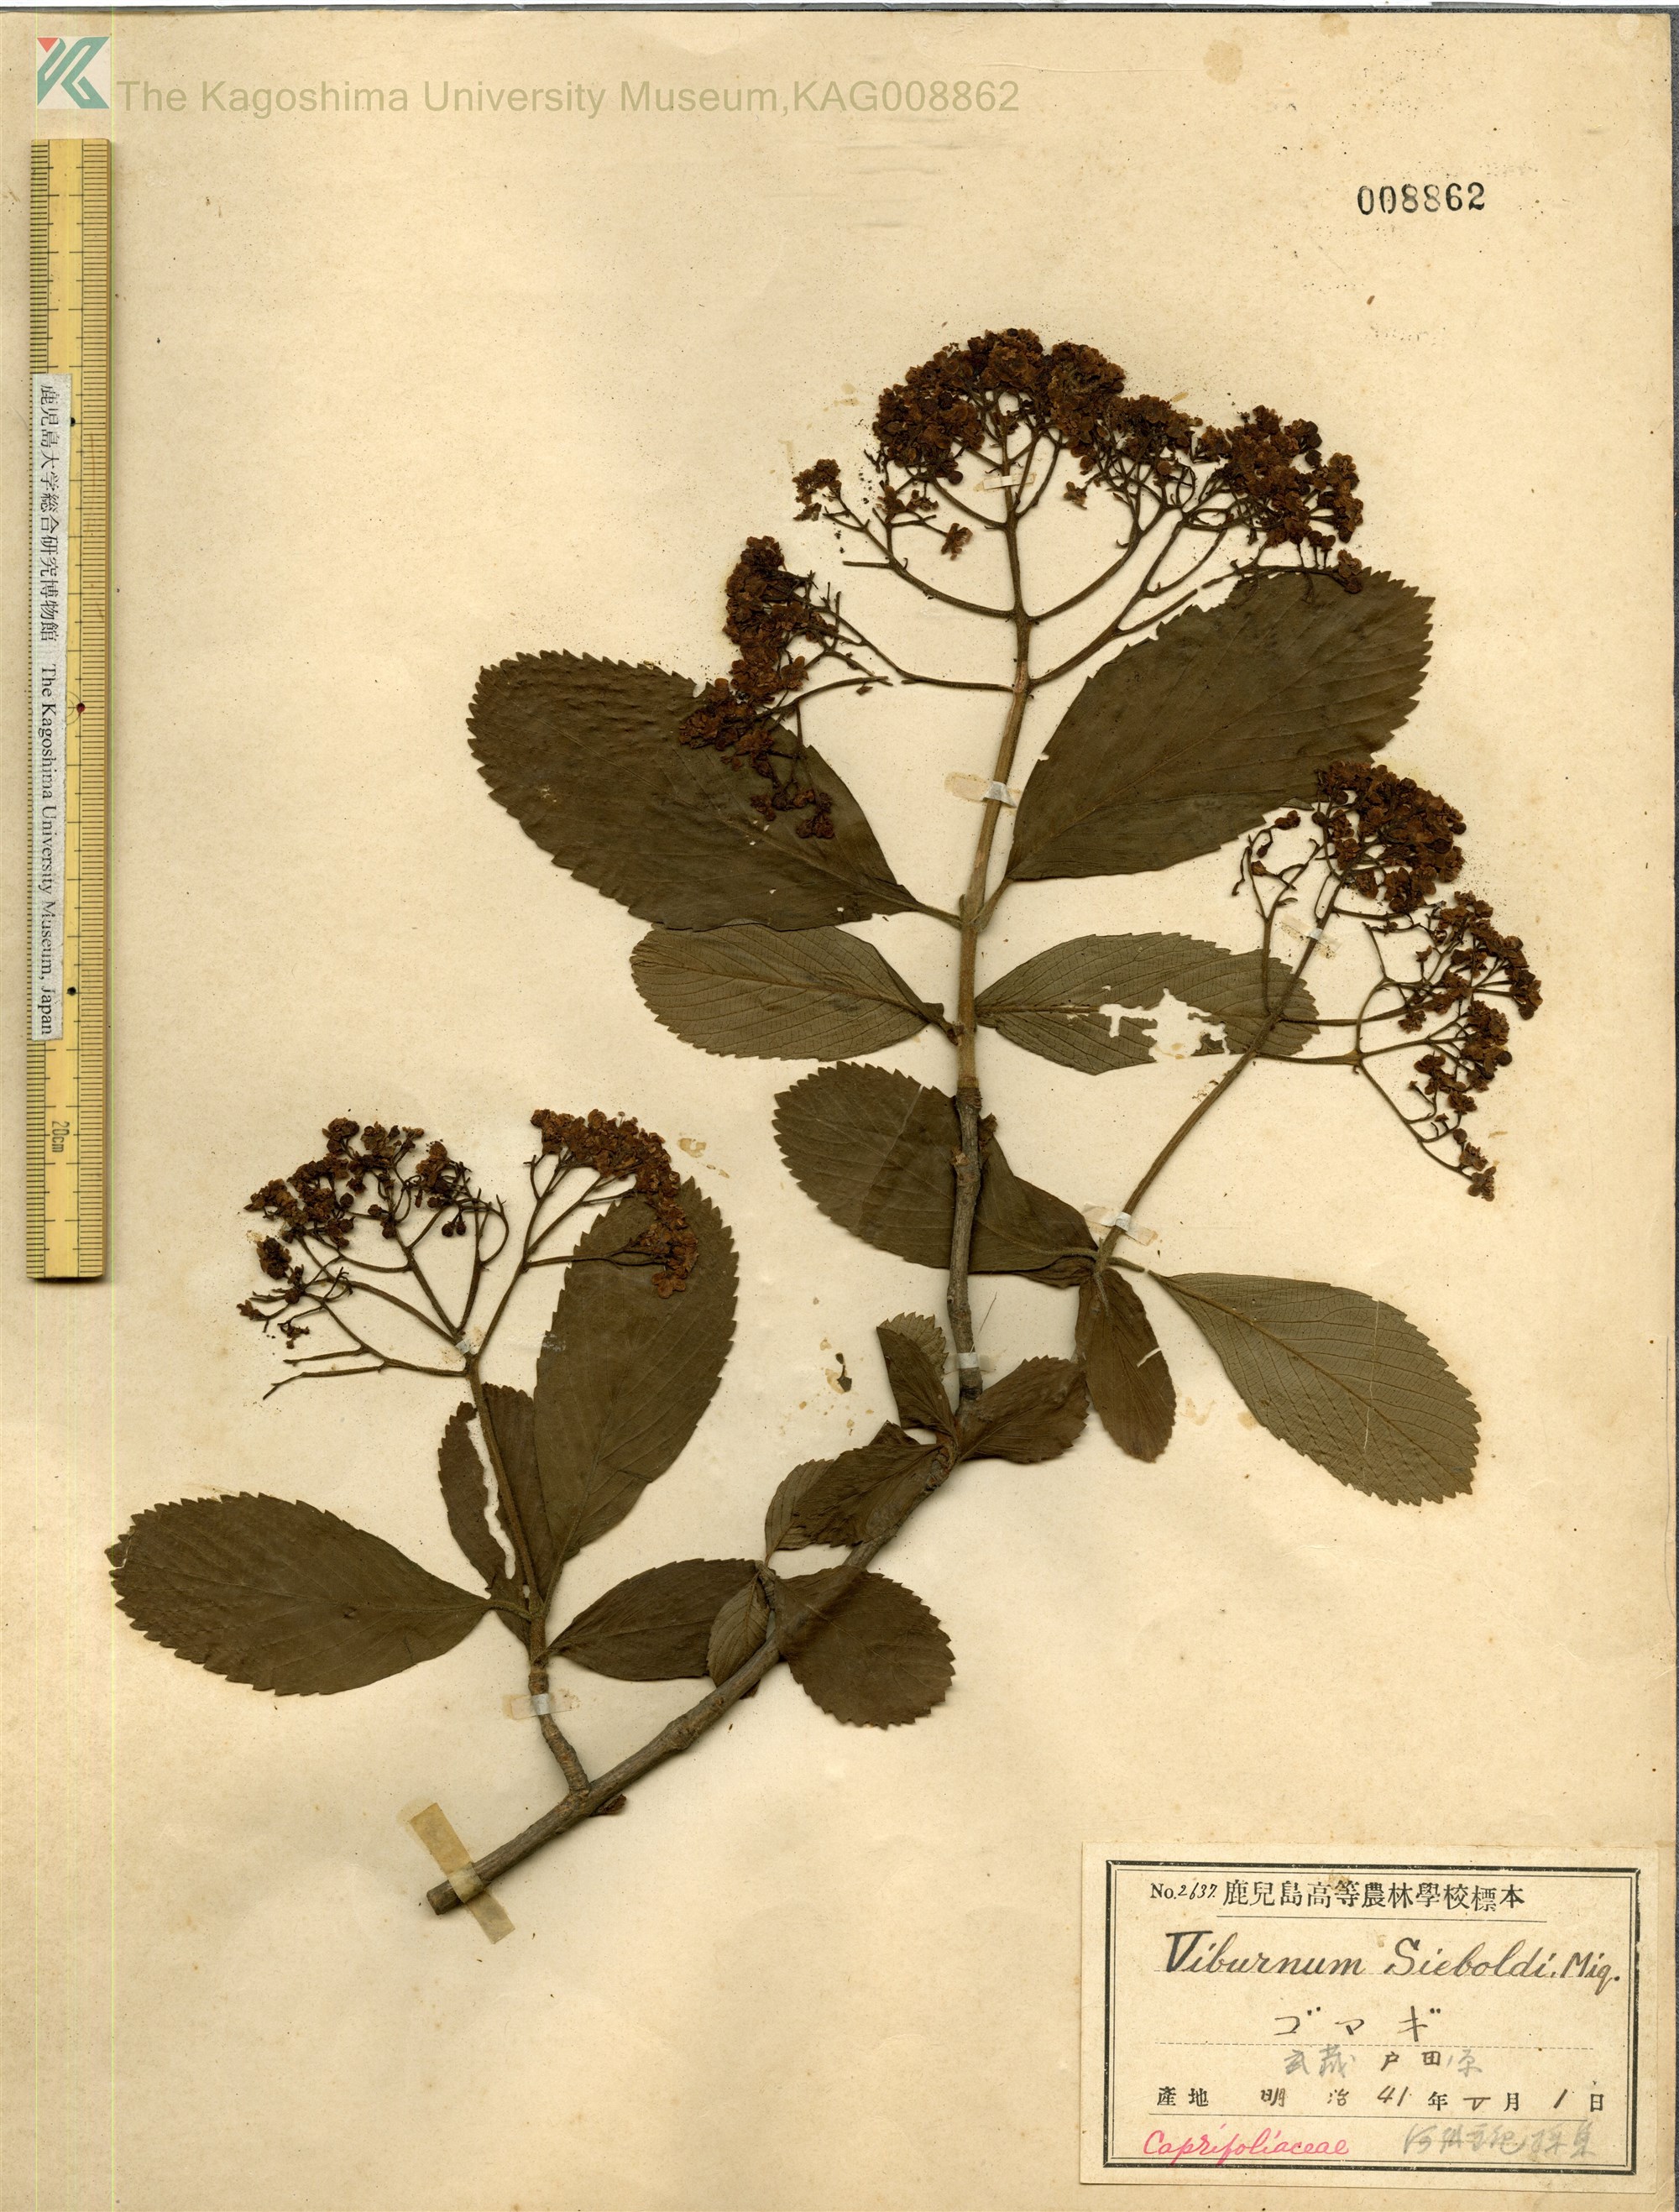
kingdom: Plantae
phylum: Tracheophyta
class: Magnoliopsida
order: Dipsacales
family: Viburnaceae
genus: Viburnum
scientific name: Viburnum sieboldii
